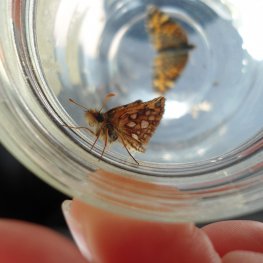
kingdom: Animalia
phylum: Arthropoda
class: Insecta
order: Lepidoptera
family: Hesperiidae
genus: Carterocephalus
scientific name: Carterocephalus palaemon
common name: Chequered Skipper
